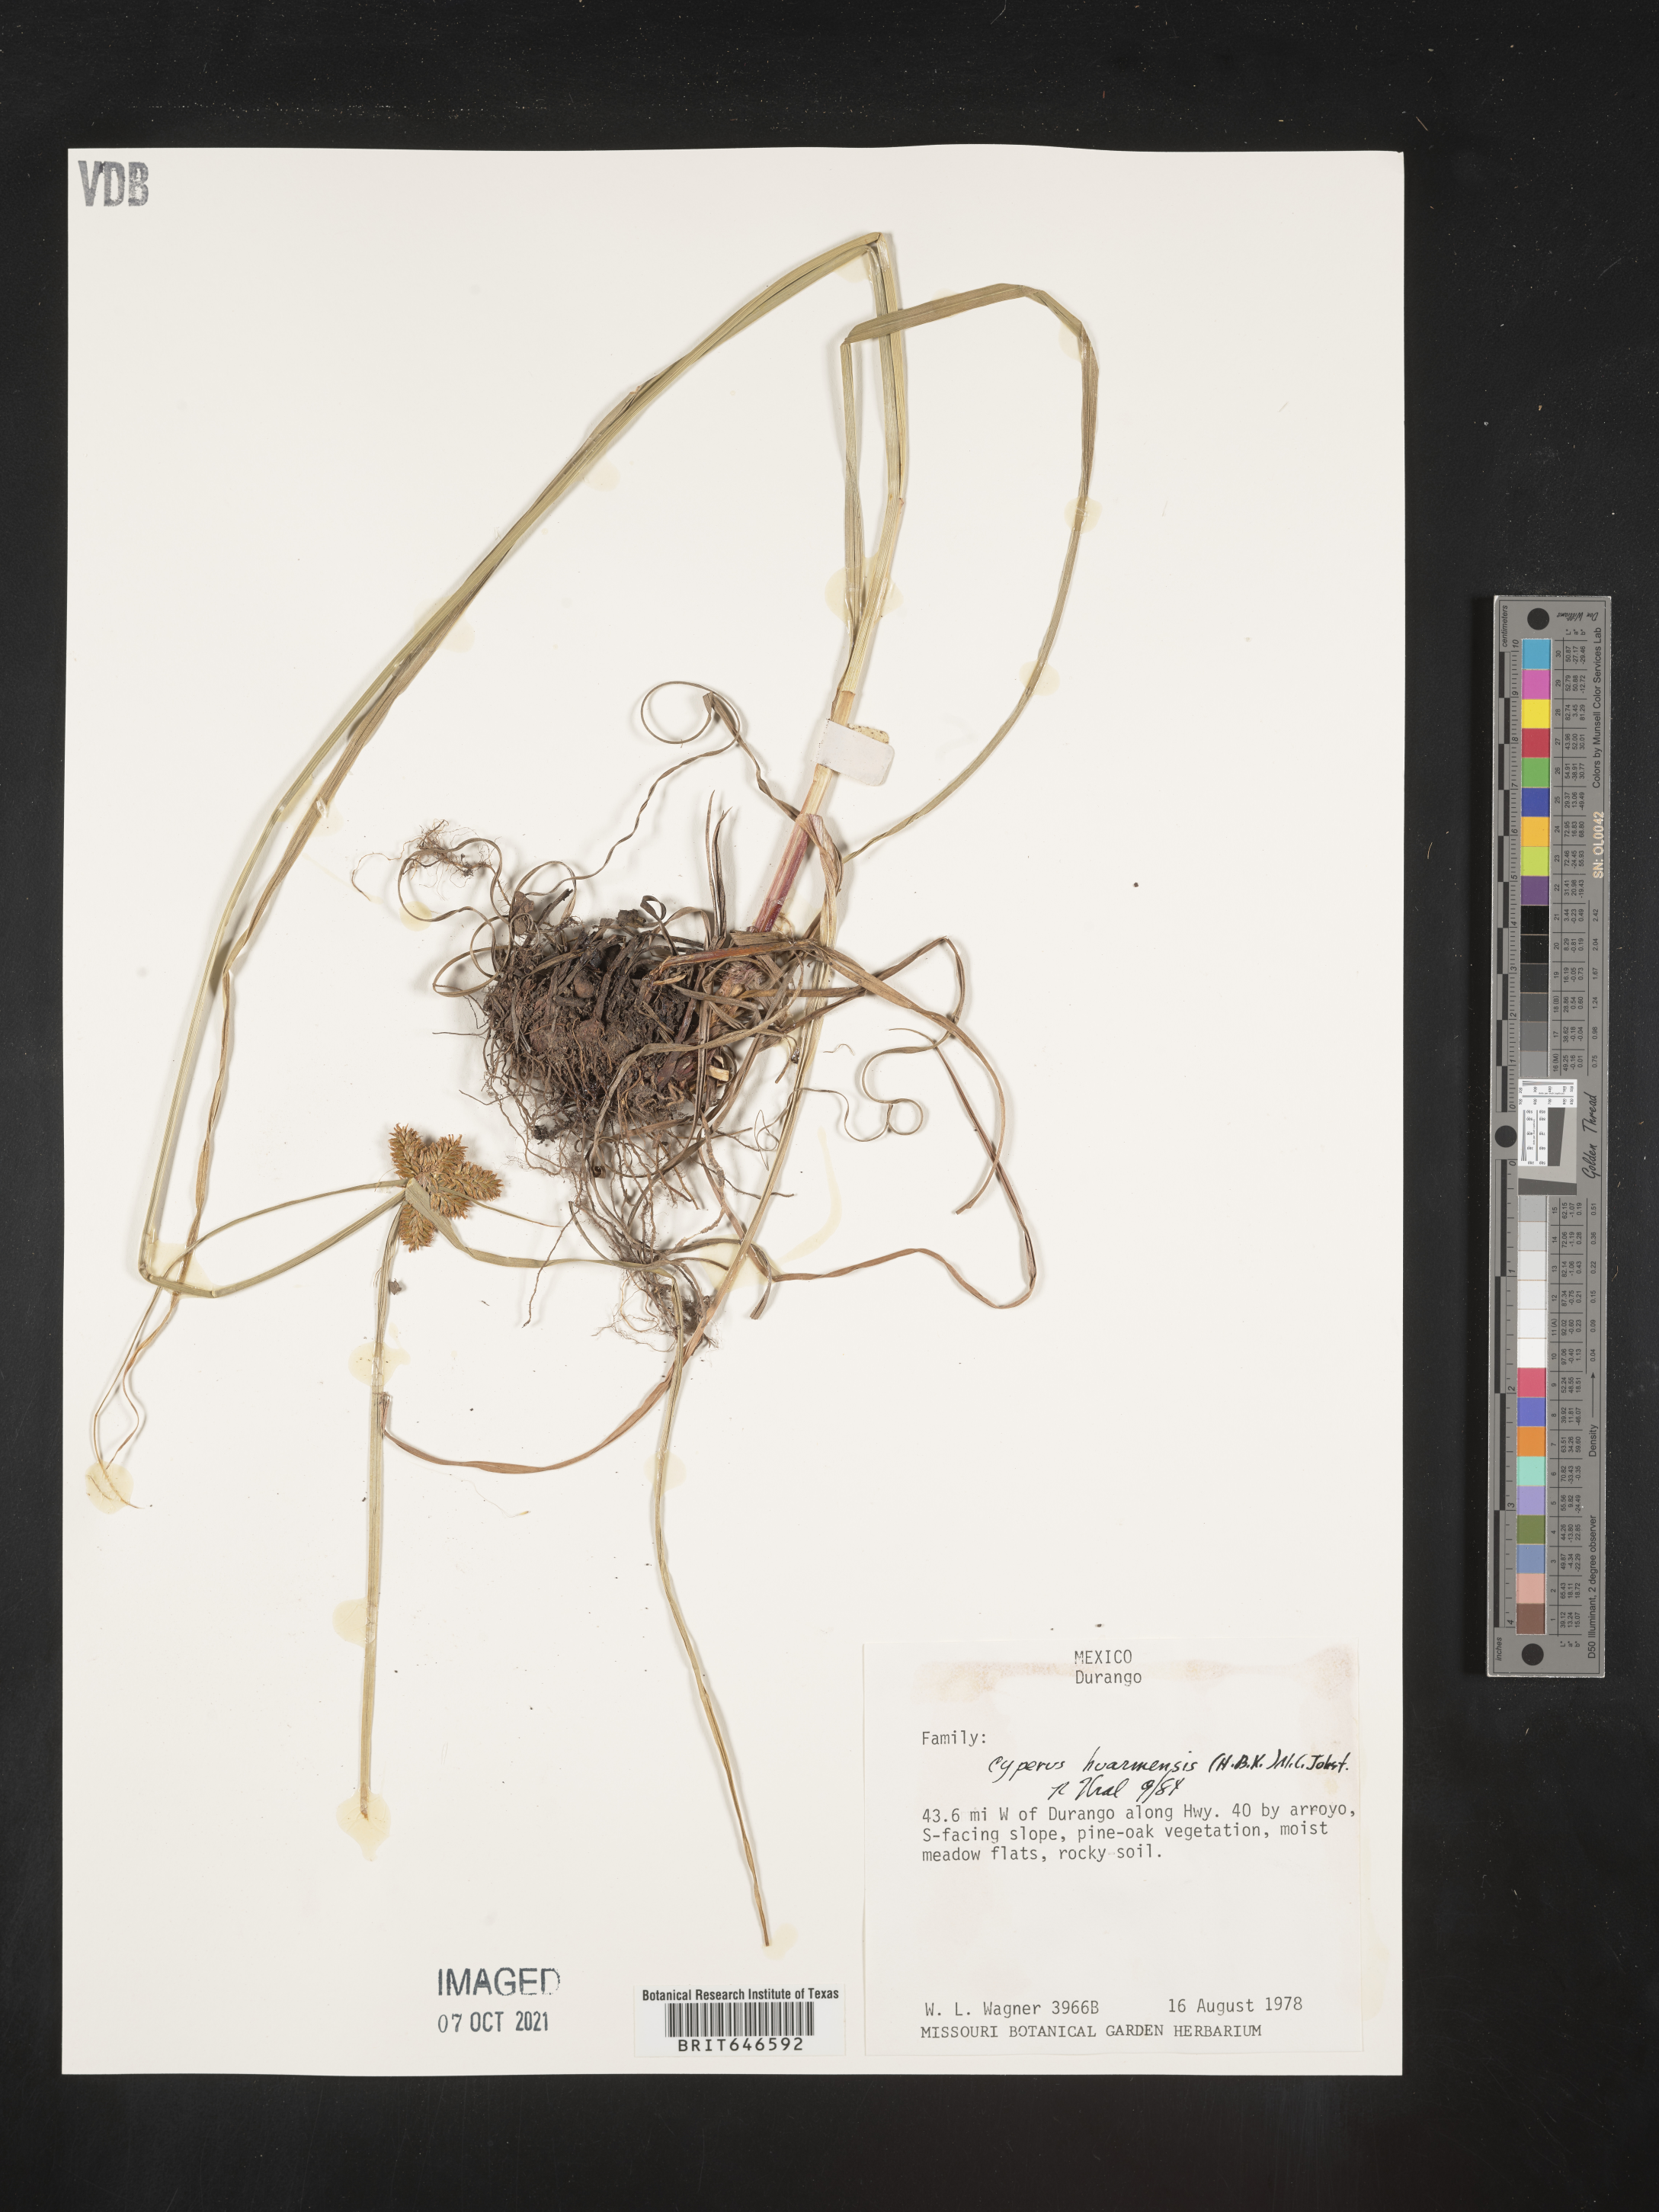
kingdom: Plantae
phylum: Tracheophyta
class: Liliopsida
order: Poales
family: Cyperaceae
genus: Cyperus
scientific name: Cyperus
